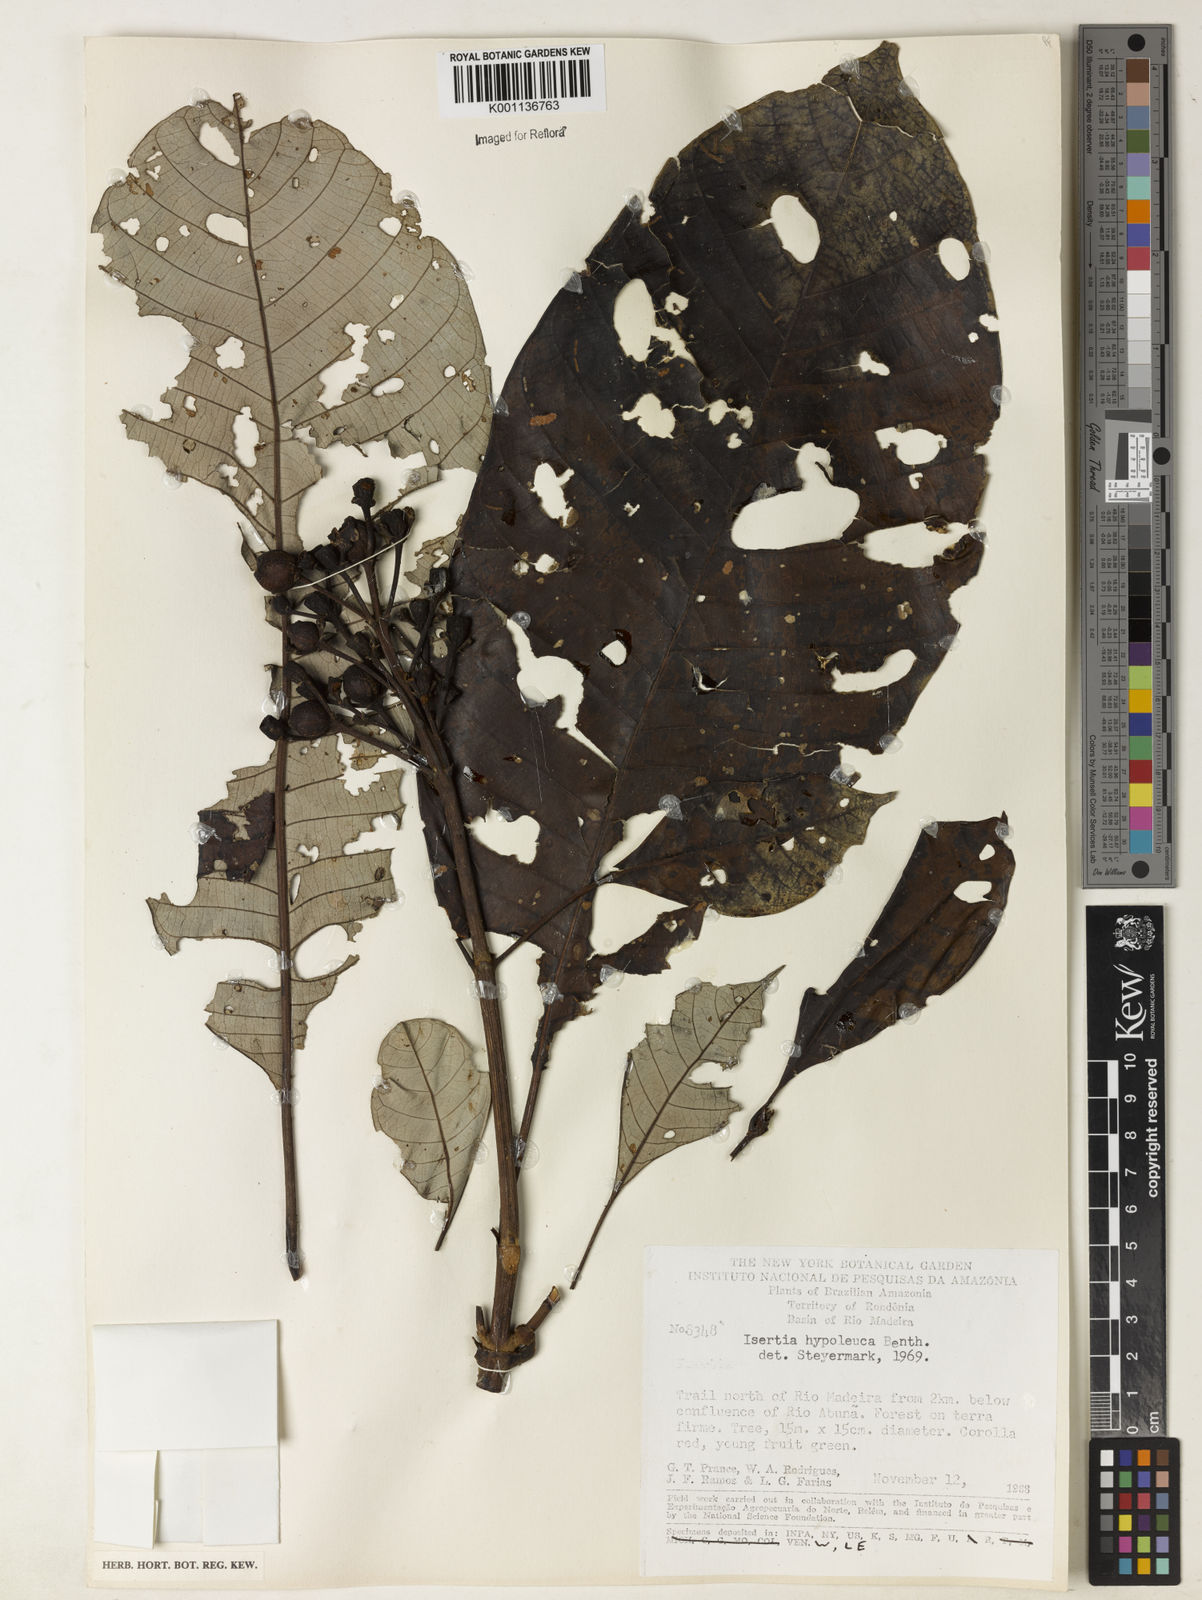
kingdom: Plantae
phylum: Tracheophyta
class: Magnoliopsida
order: Gentianales
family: Rubiaceae
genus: Isertia
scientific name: Isertia hypoleuca
